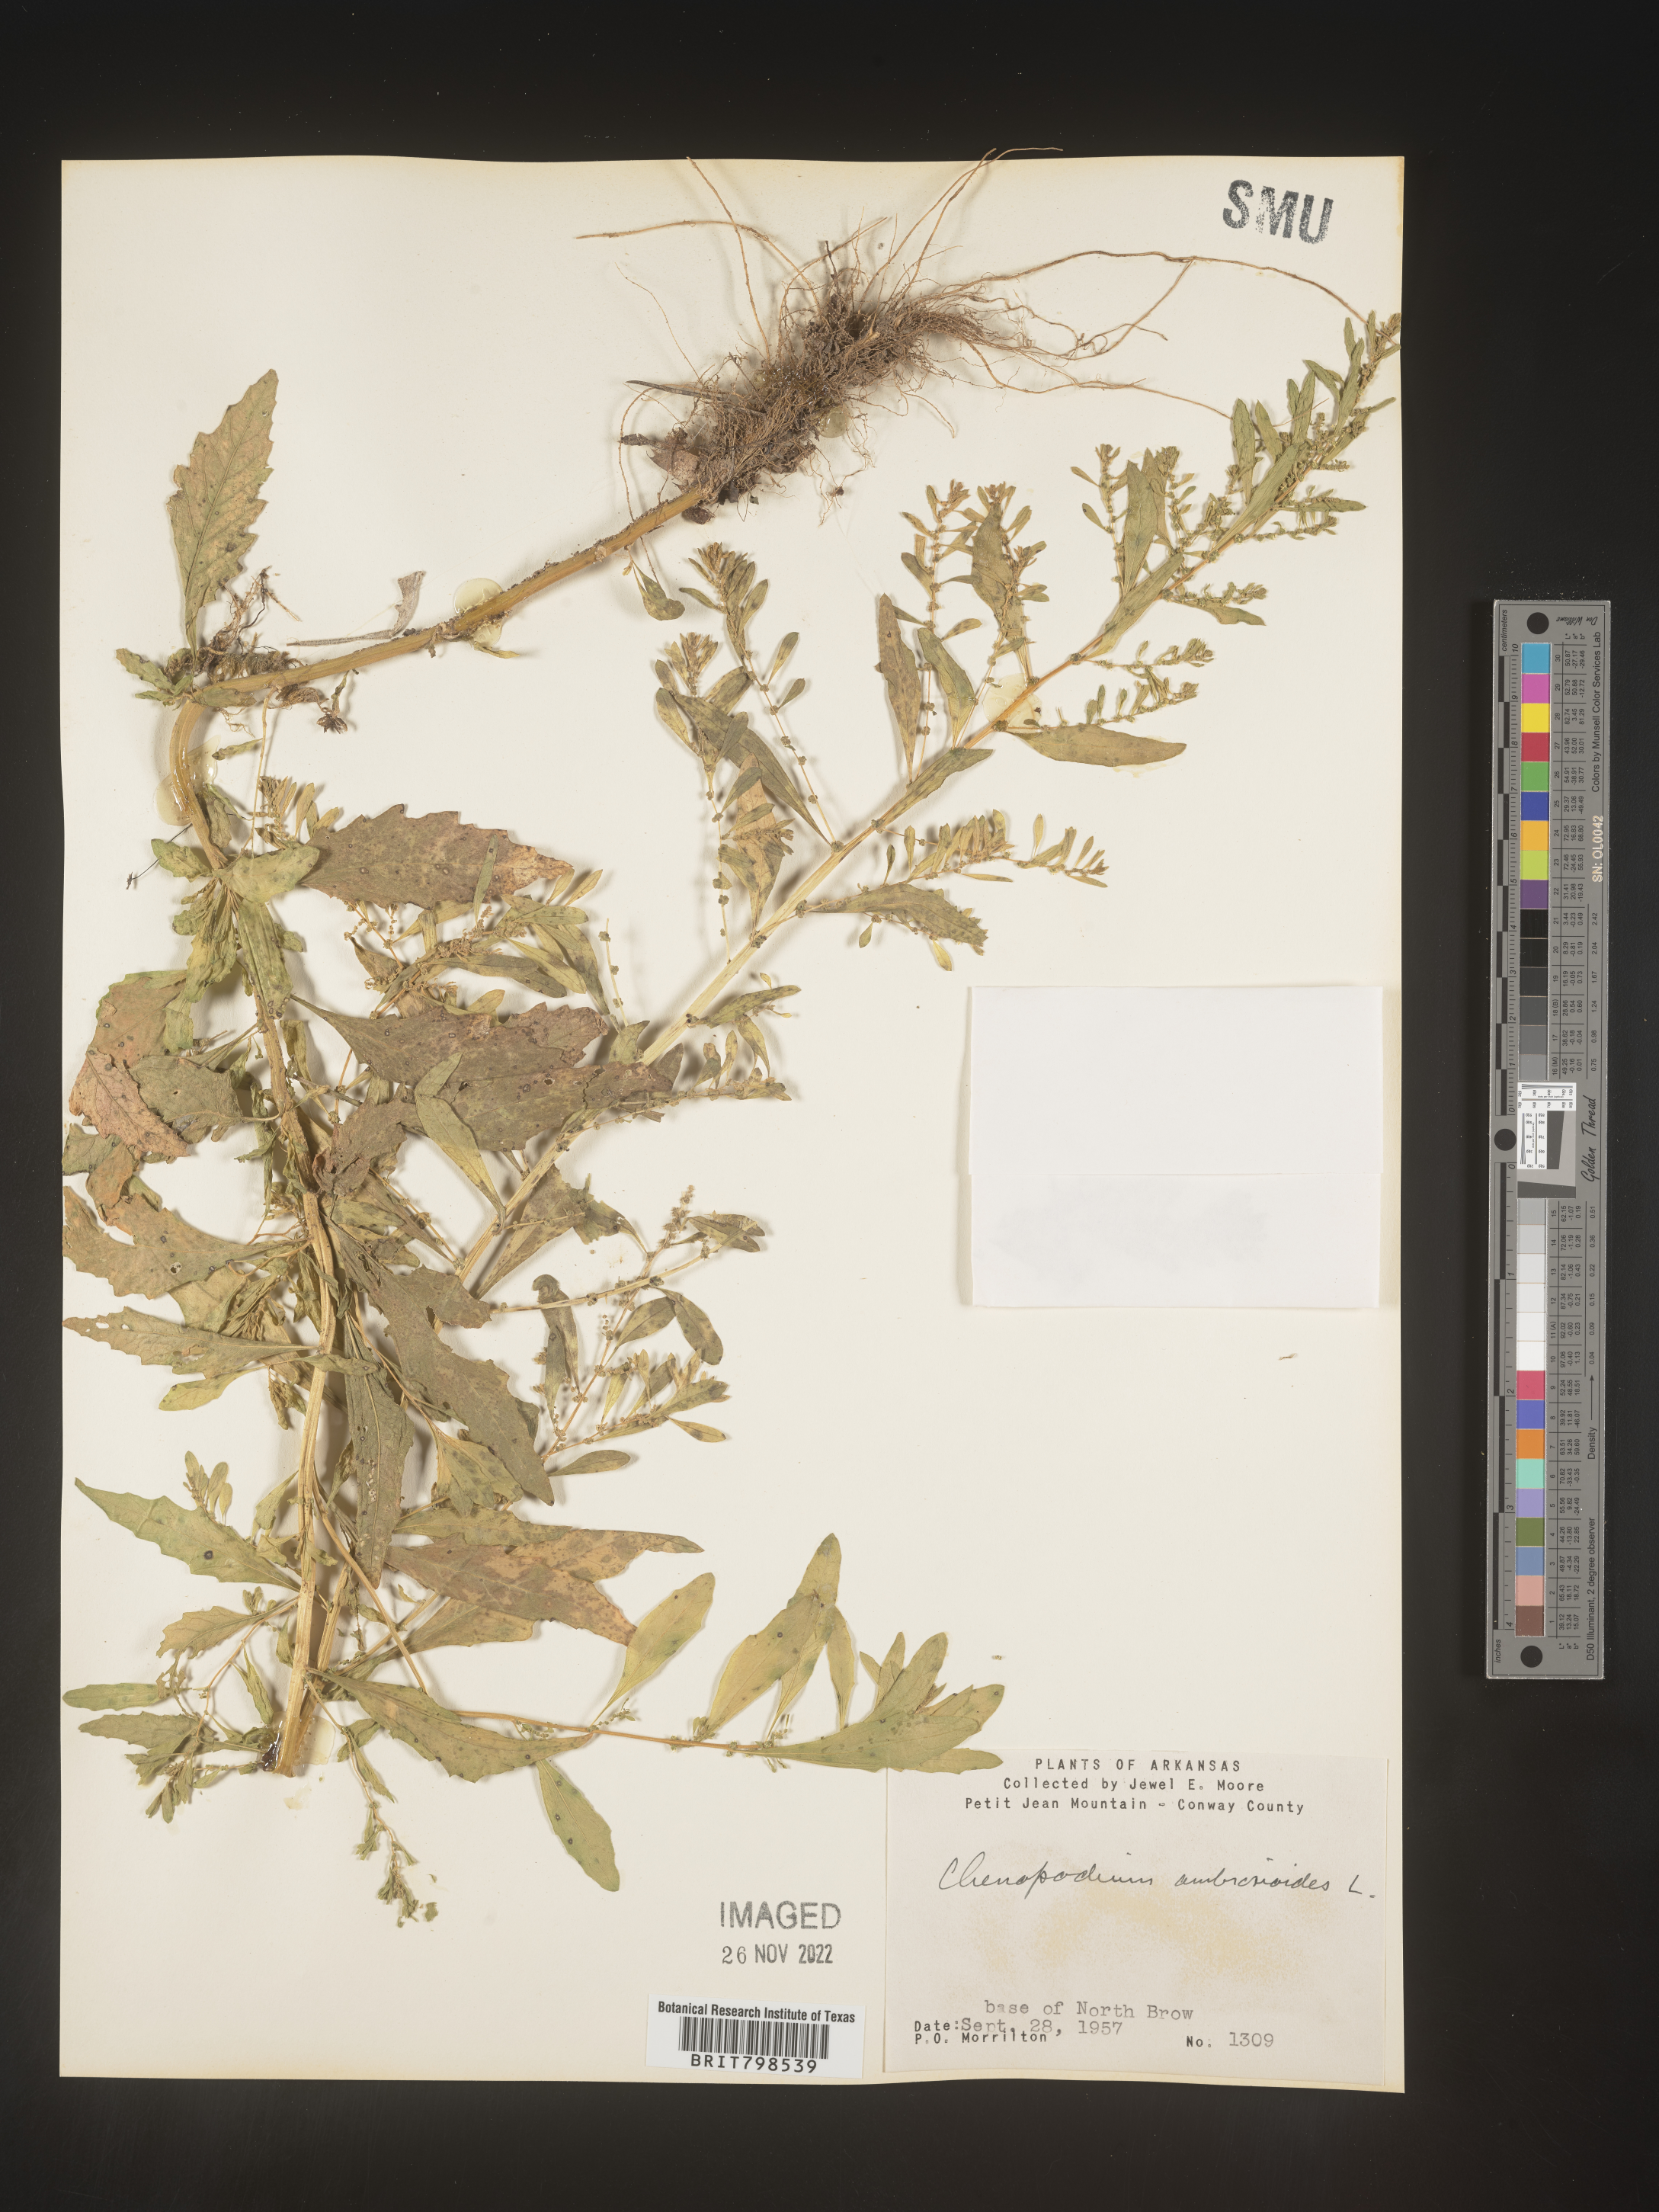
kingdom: Plantae
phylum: Tracheophyta
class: Magnoliopsida
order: Caryophyllales
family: Amaranthaceae
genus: Dysphania
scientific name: Dysphania ambrosioides
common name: Wormseed
